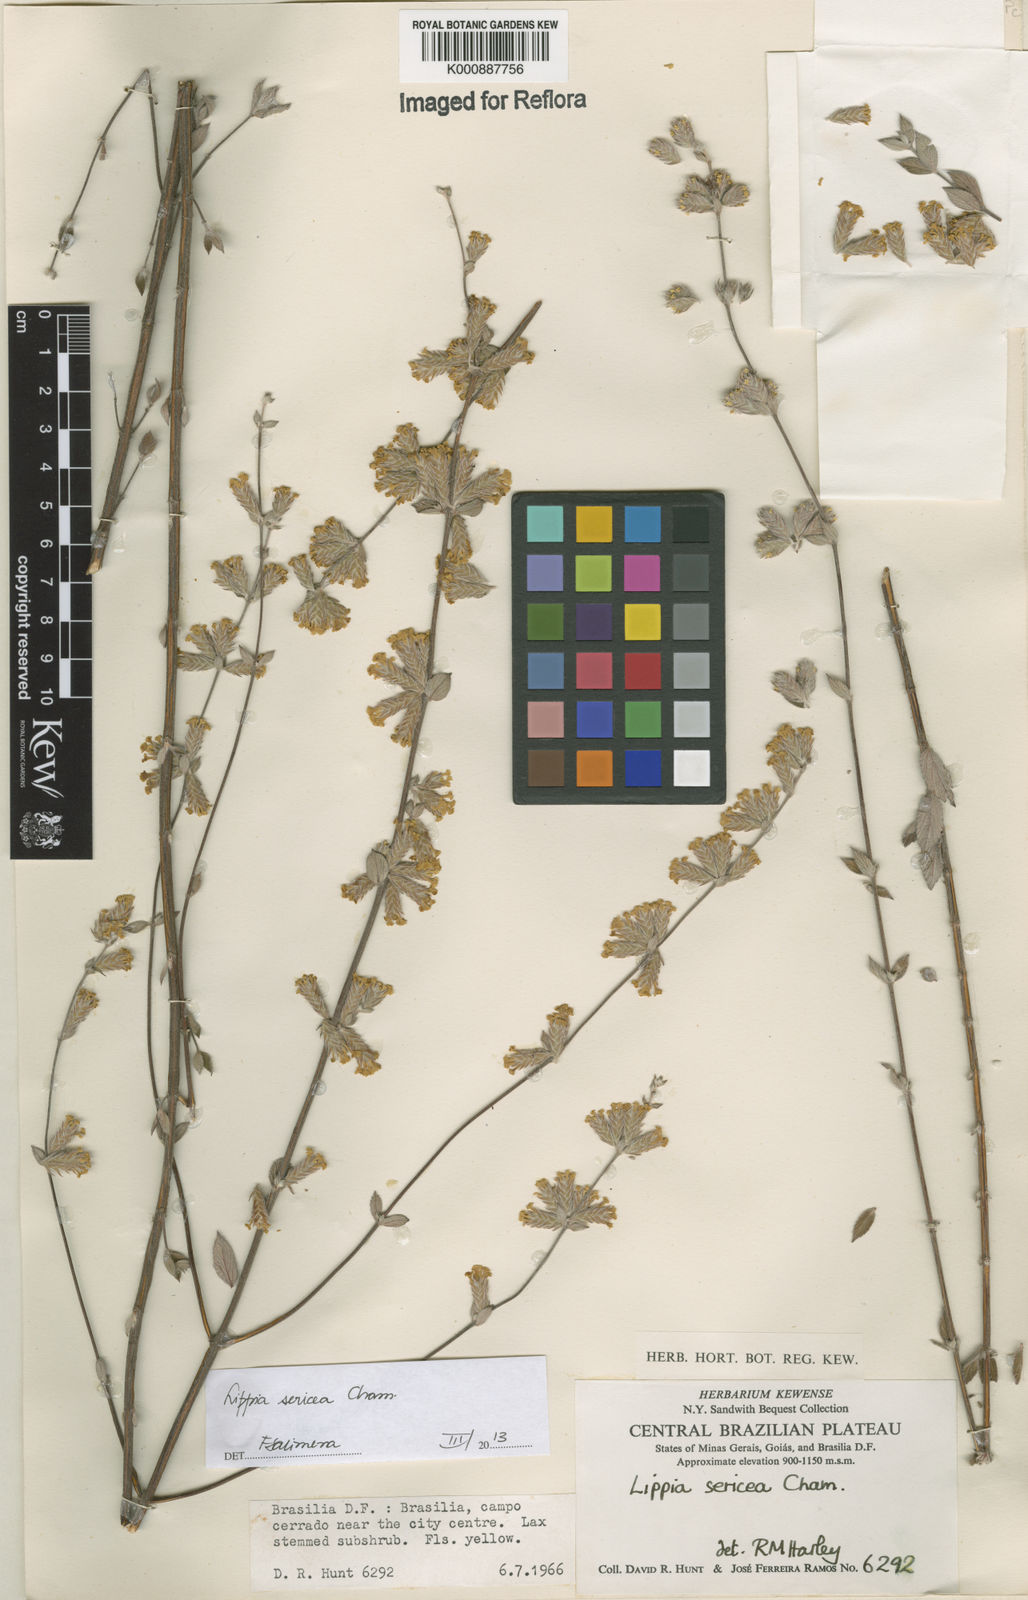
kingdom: Plantae
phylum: Tracheophyta
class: Magnoliopsida
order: Lamiales
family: Verbenaceae
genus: Lippia
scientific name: Lippia sericea
